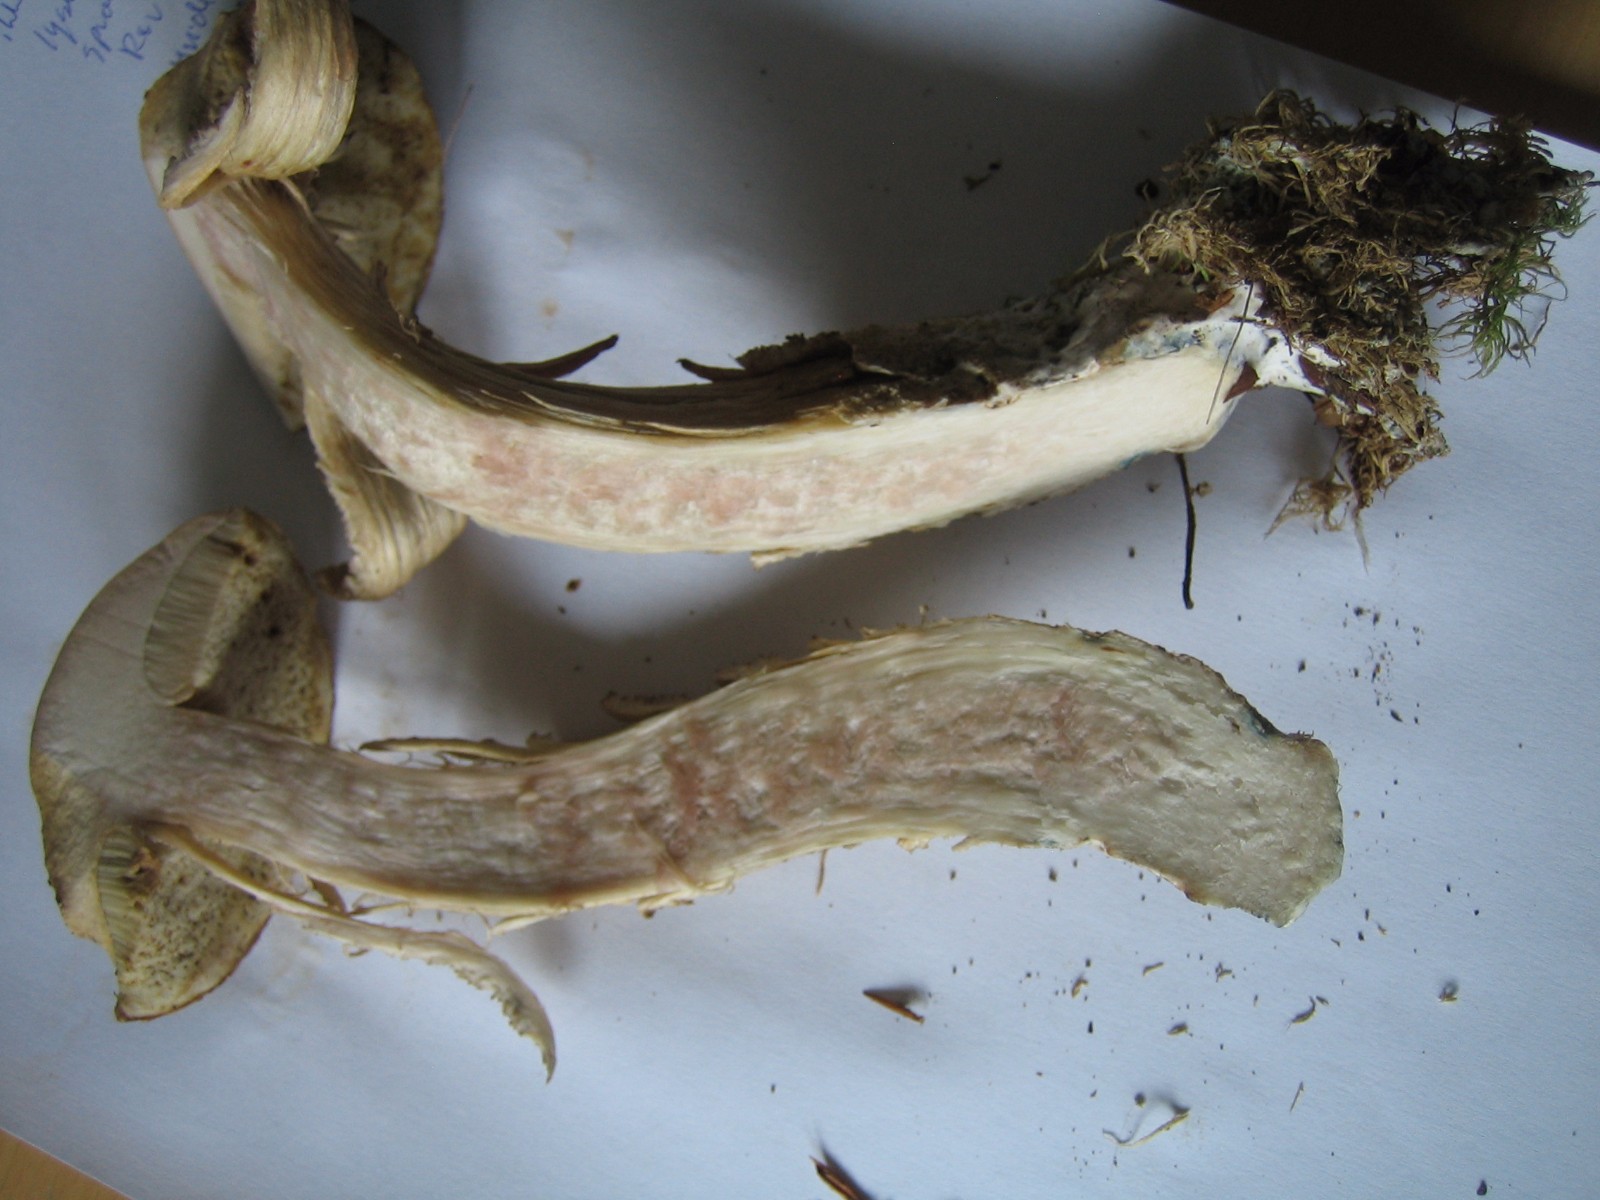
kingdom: Fungi
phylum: Basidiomycota
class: Agaricomycetes
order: Boletales
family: Boletaceae
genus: Leccinellum
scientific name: Leccinellum
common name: skælrørhat
